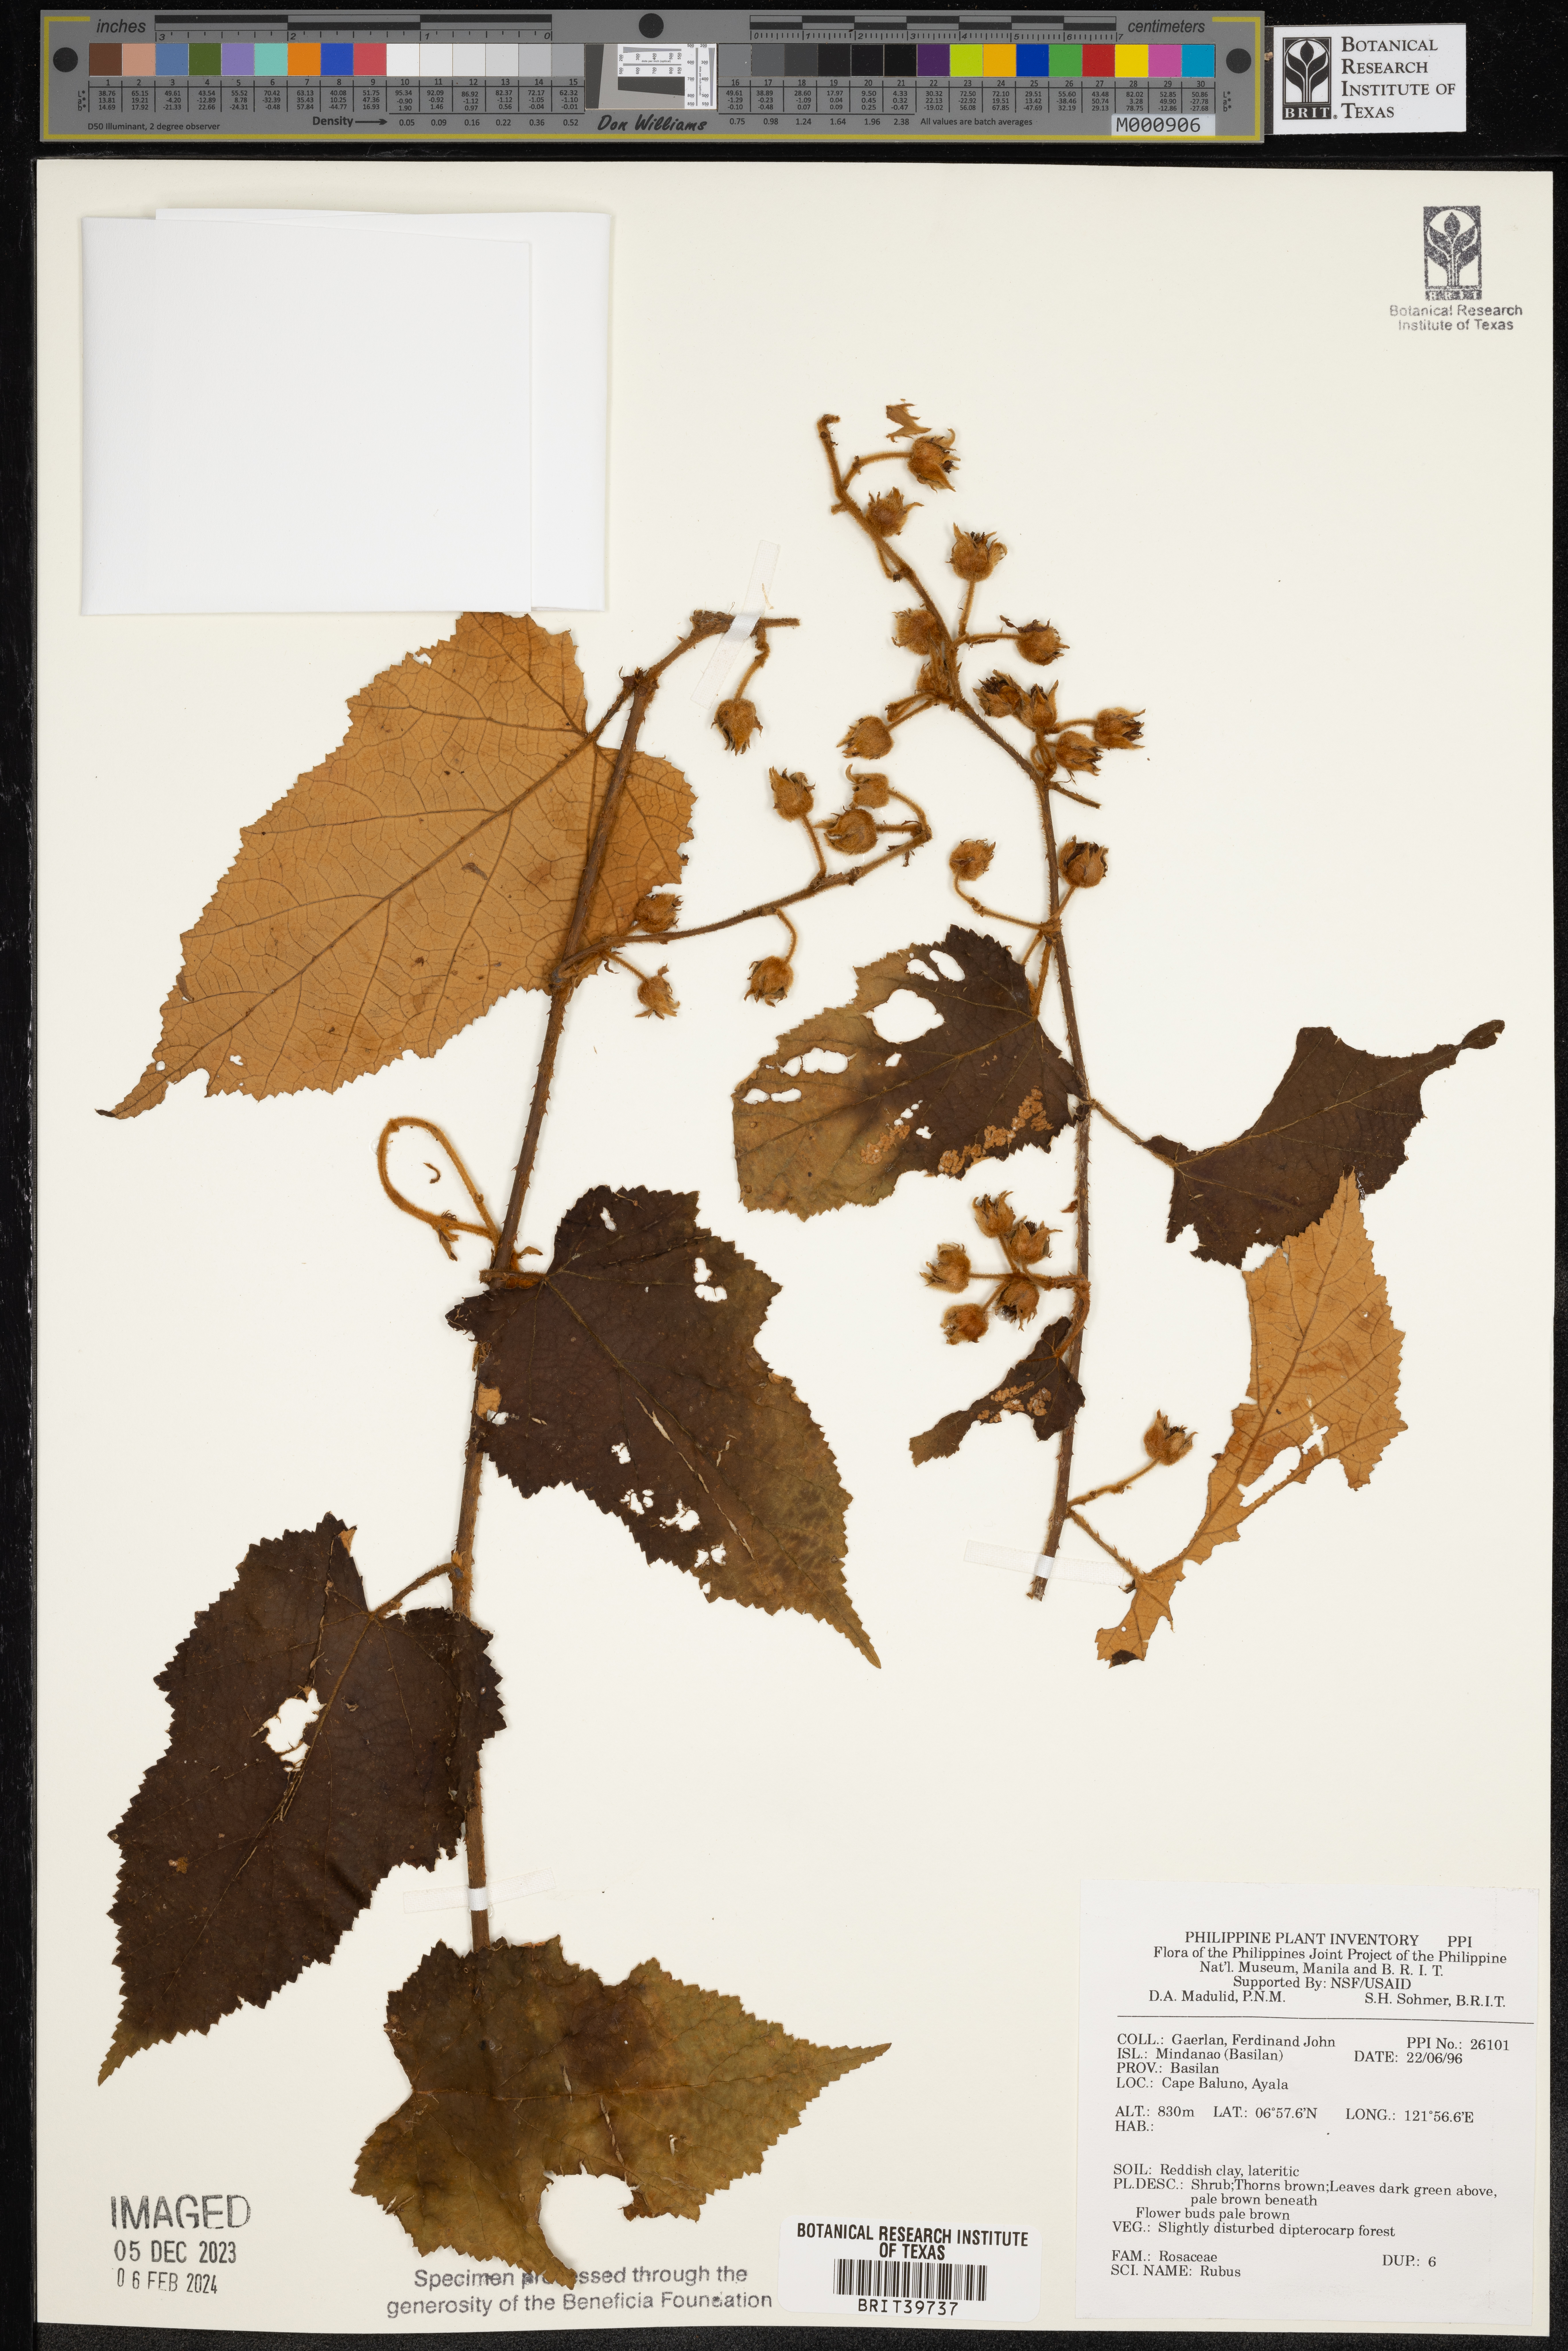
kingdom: Plantae
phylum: Tracheophyta
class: Magnoliopsida
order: Rosales
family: Rosaceae
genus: Rubus
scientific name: Rubus
